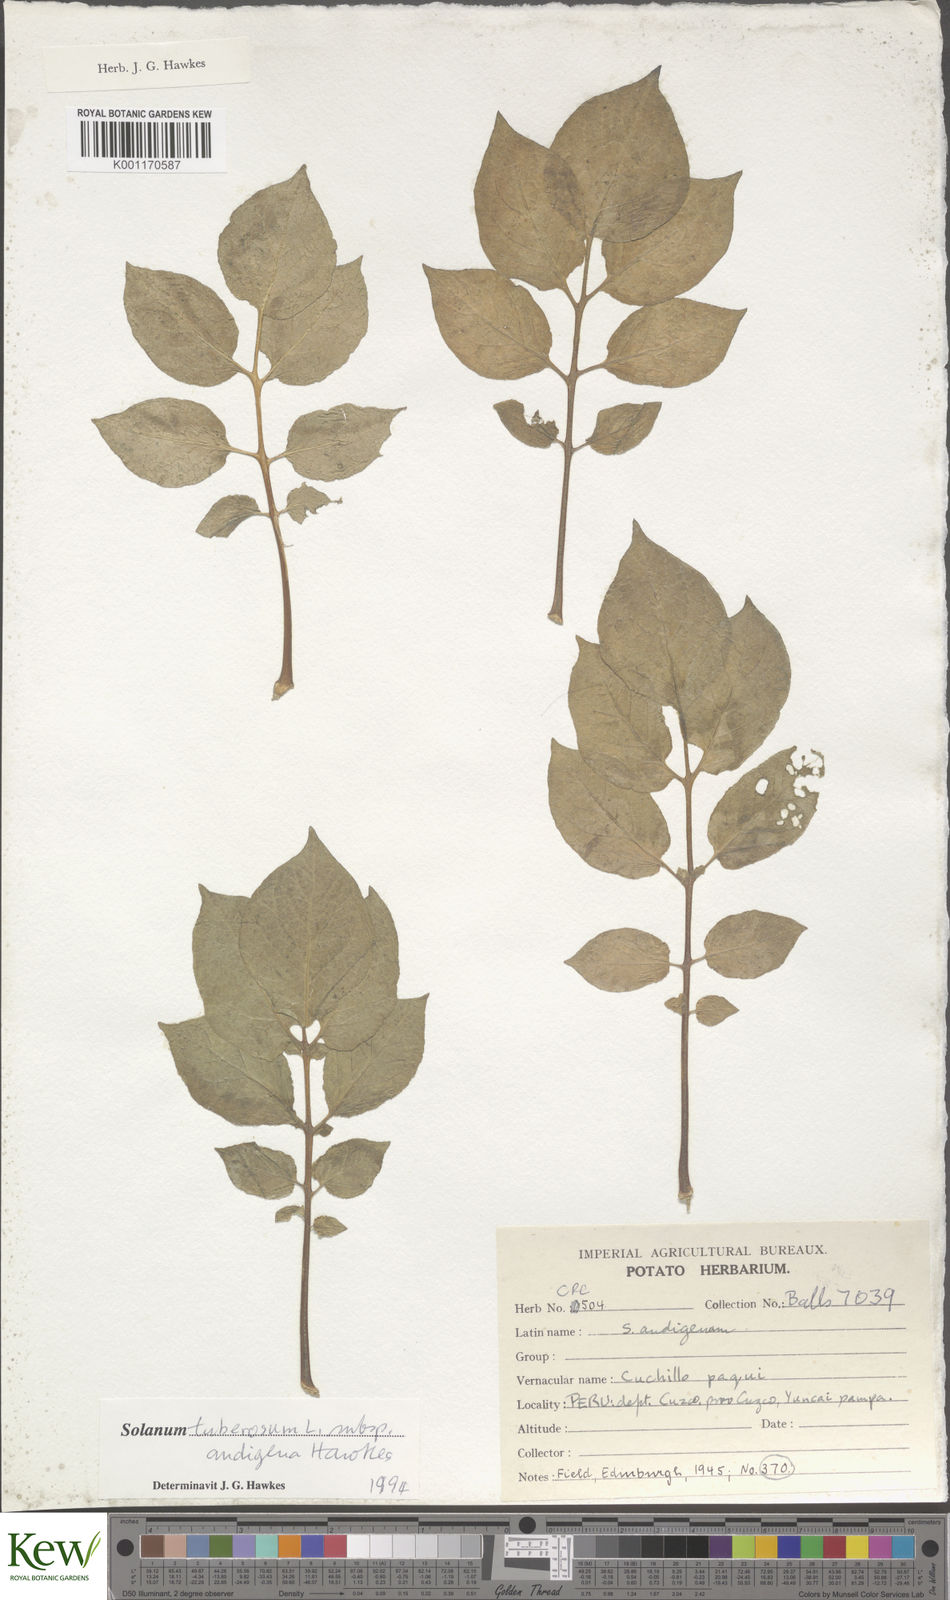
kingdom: Plantae
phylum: Tracheophyta
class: Magnoliopsida
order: Solanales
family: Solanaceae
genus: Solanum
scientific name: Solanum tuberosum
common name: Potato
